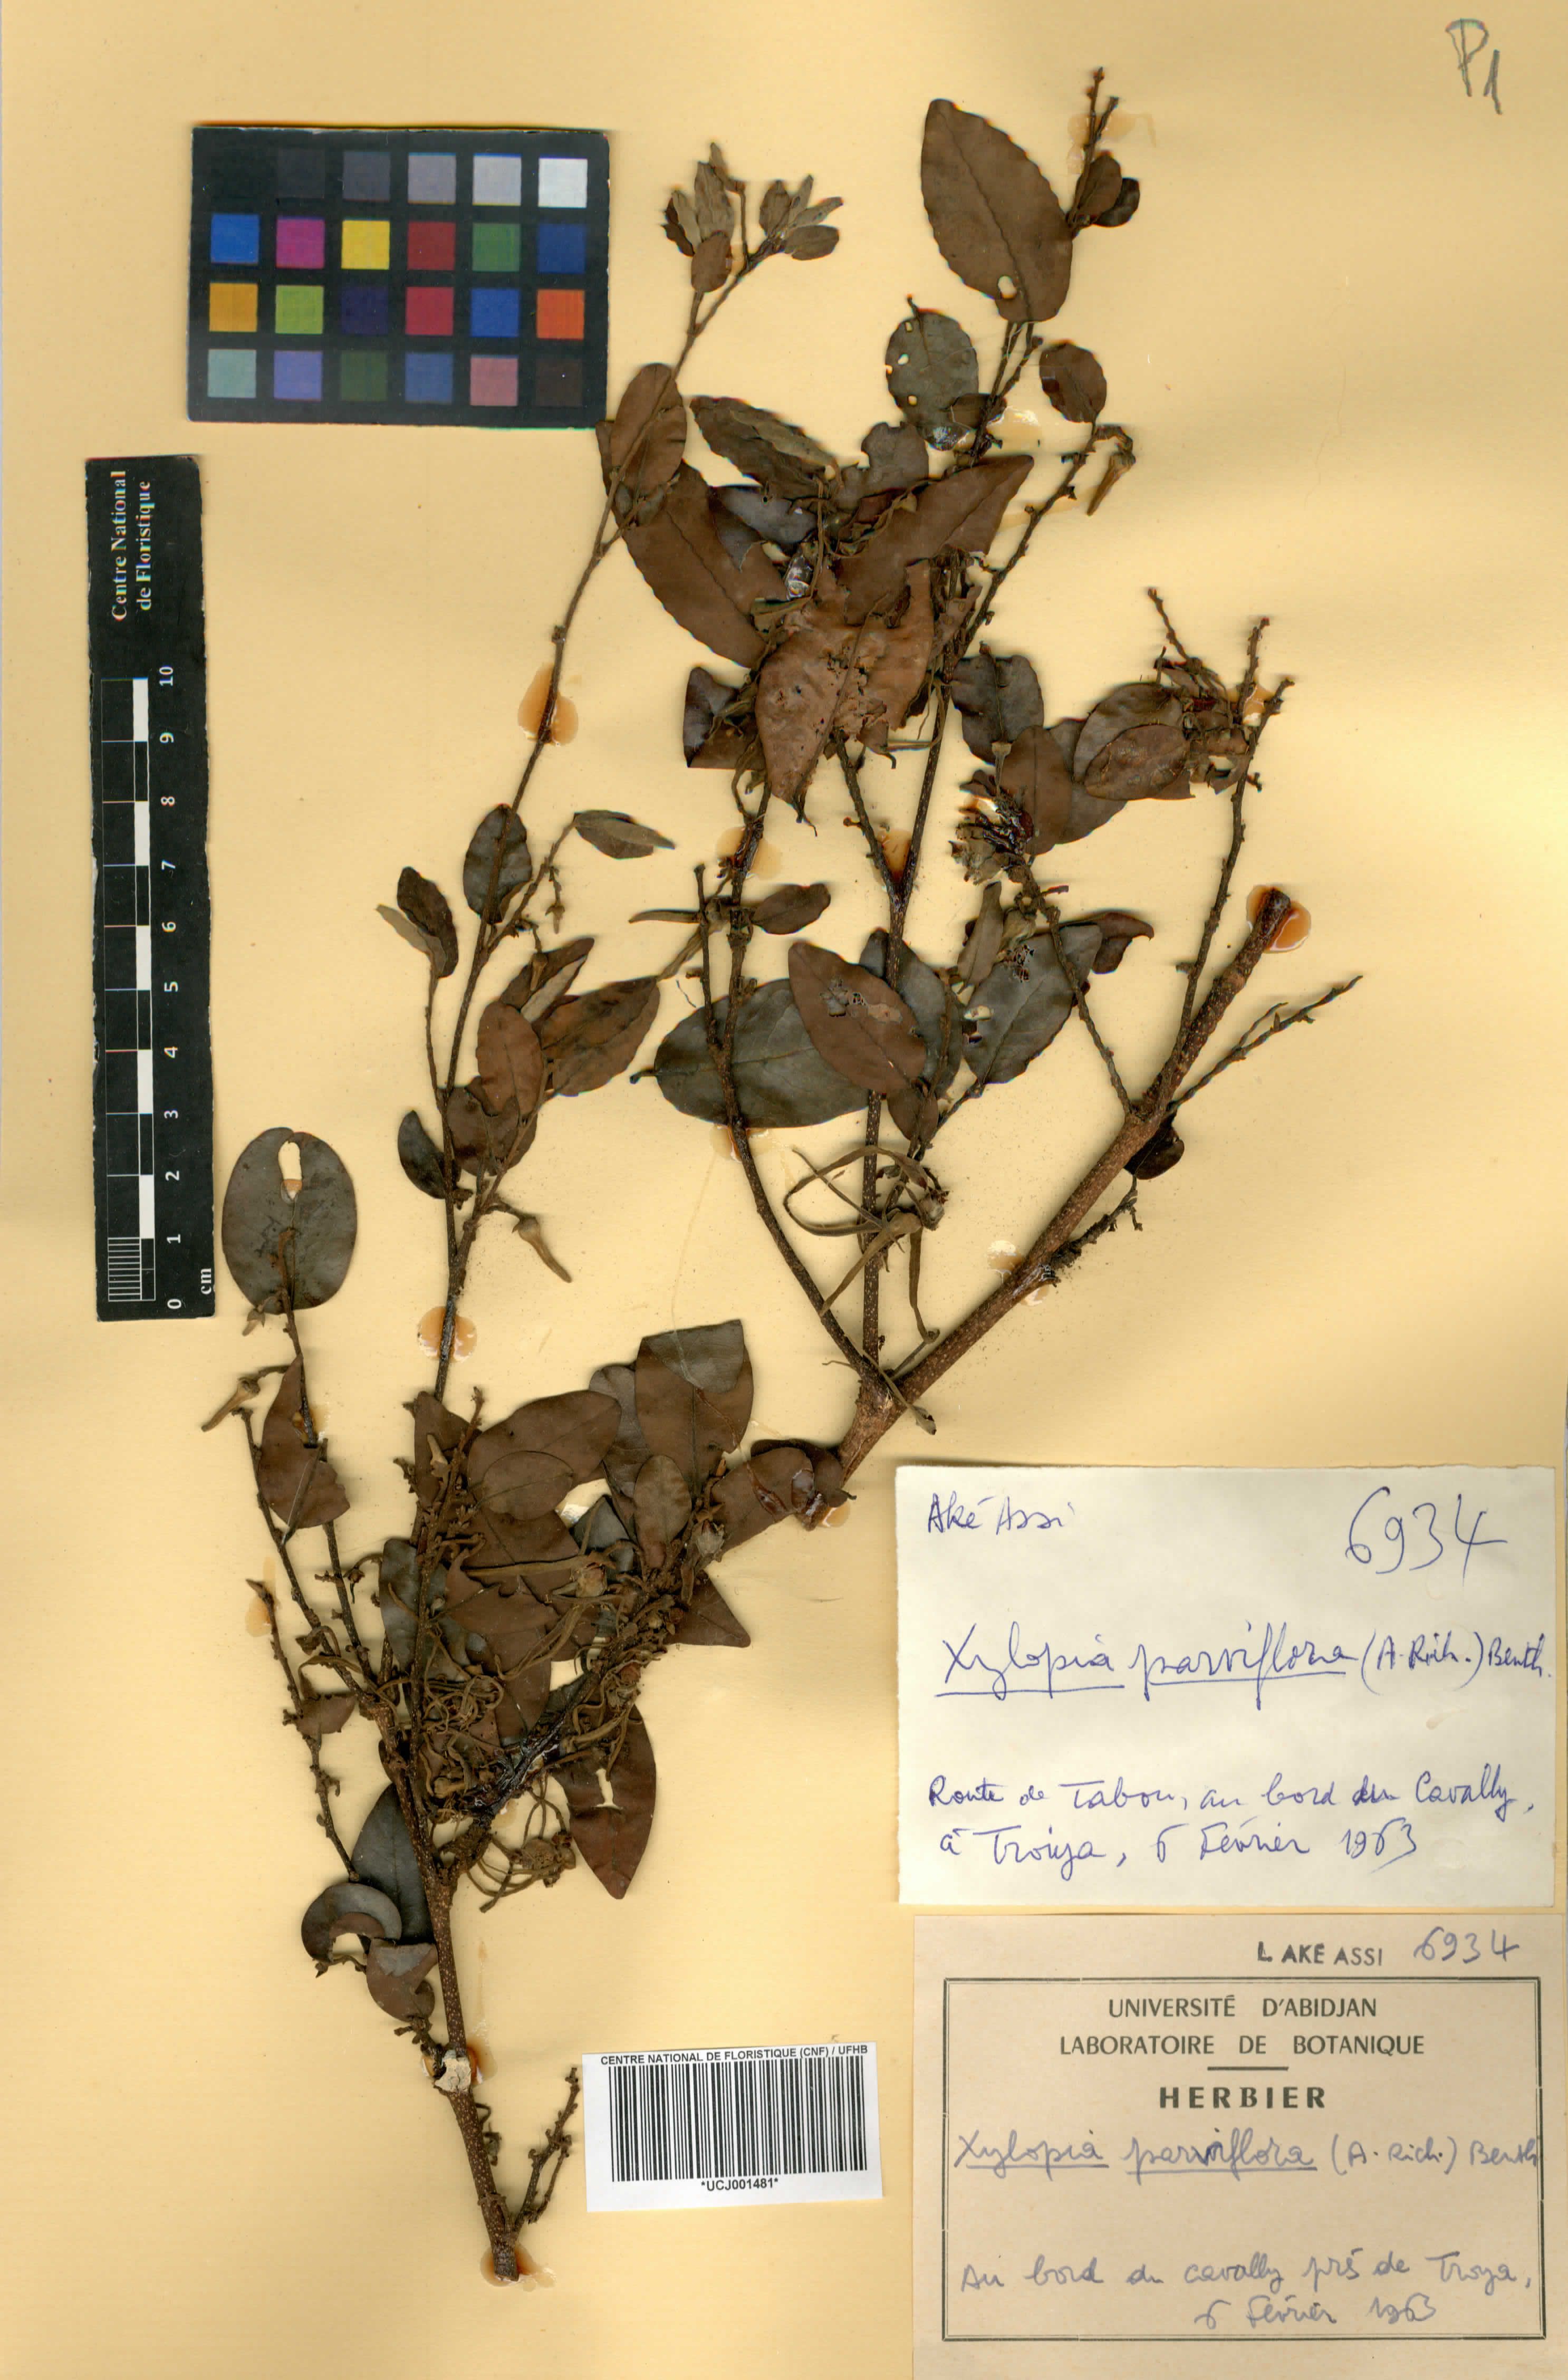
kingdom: Plantae
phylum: Tracheophyta
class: Magnoliopsida
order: Magnoliales
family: Annonaceae
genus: Xylopia
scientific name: Xylopia parviflora
